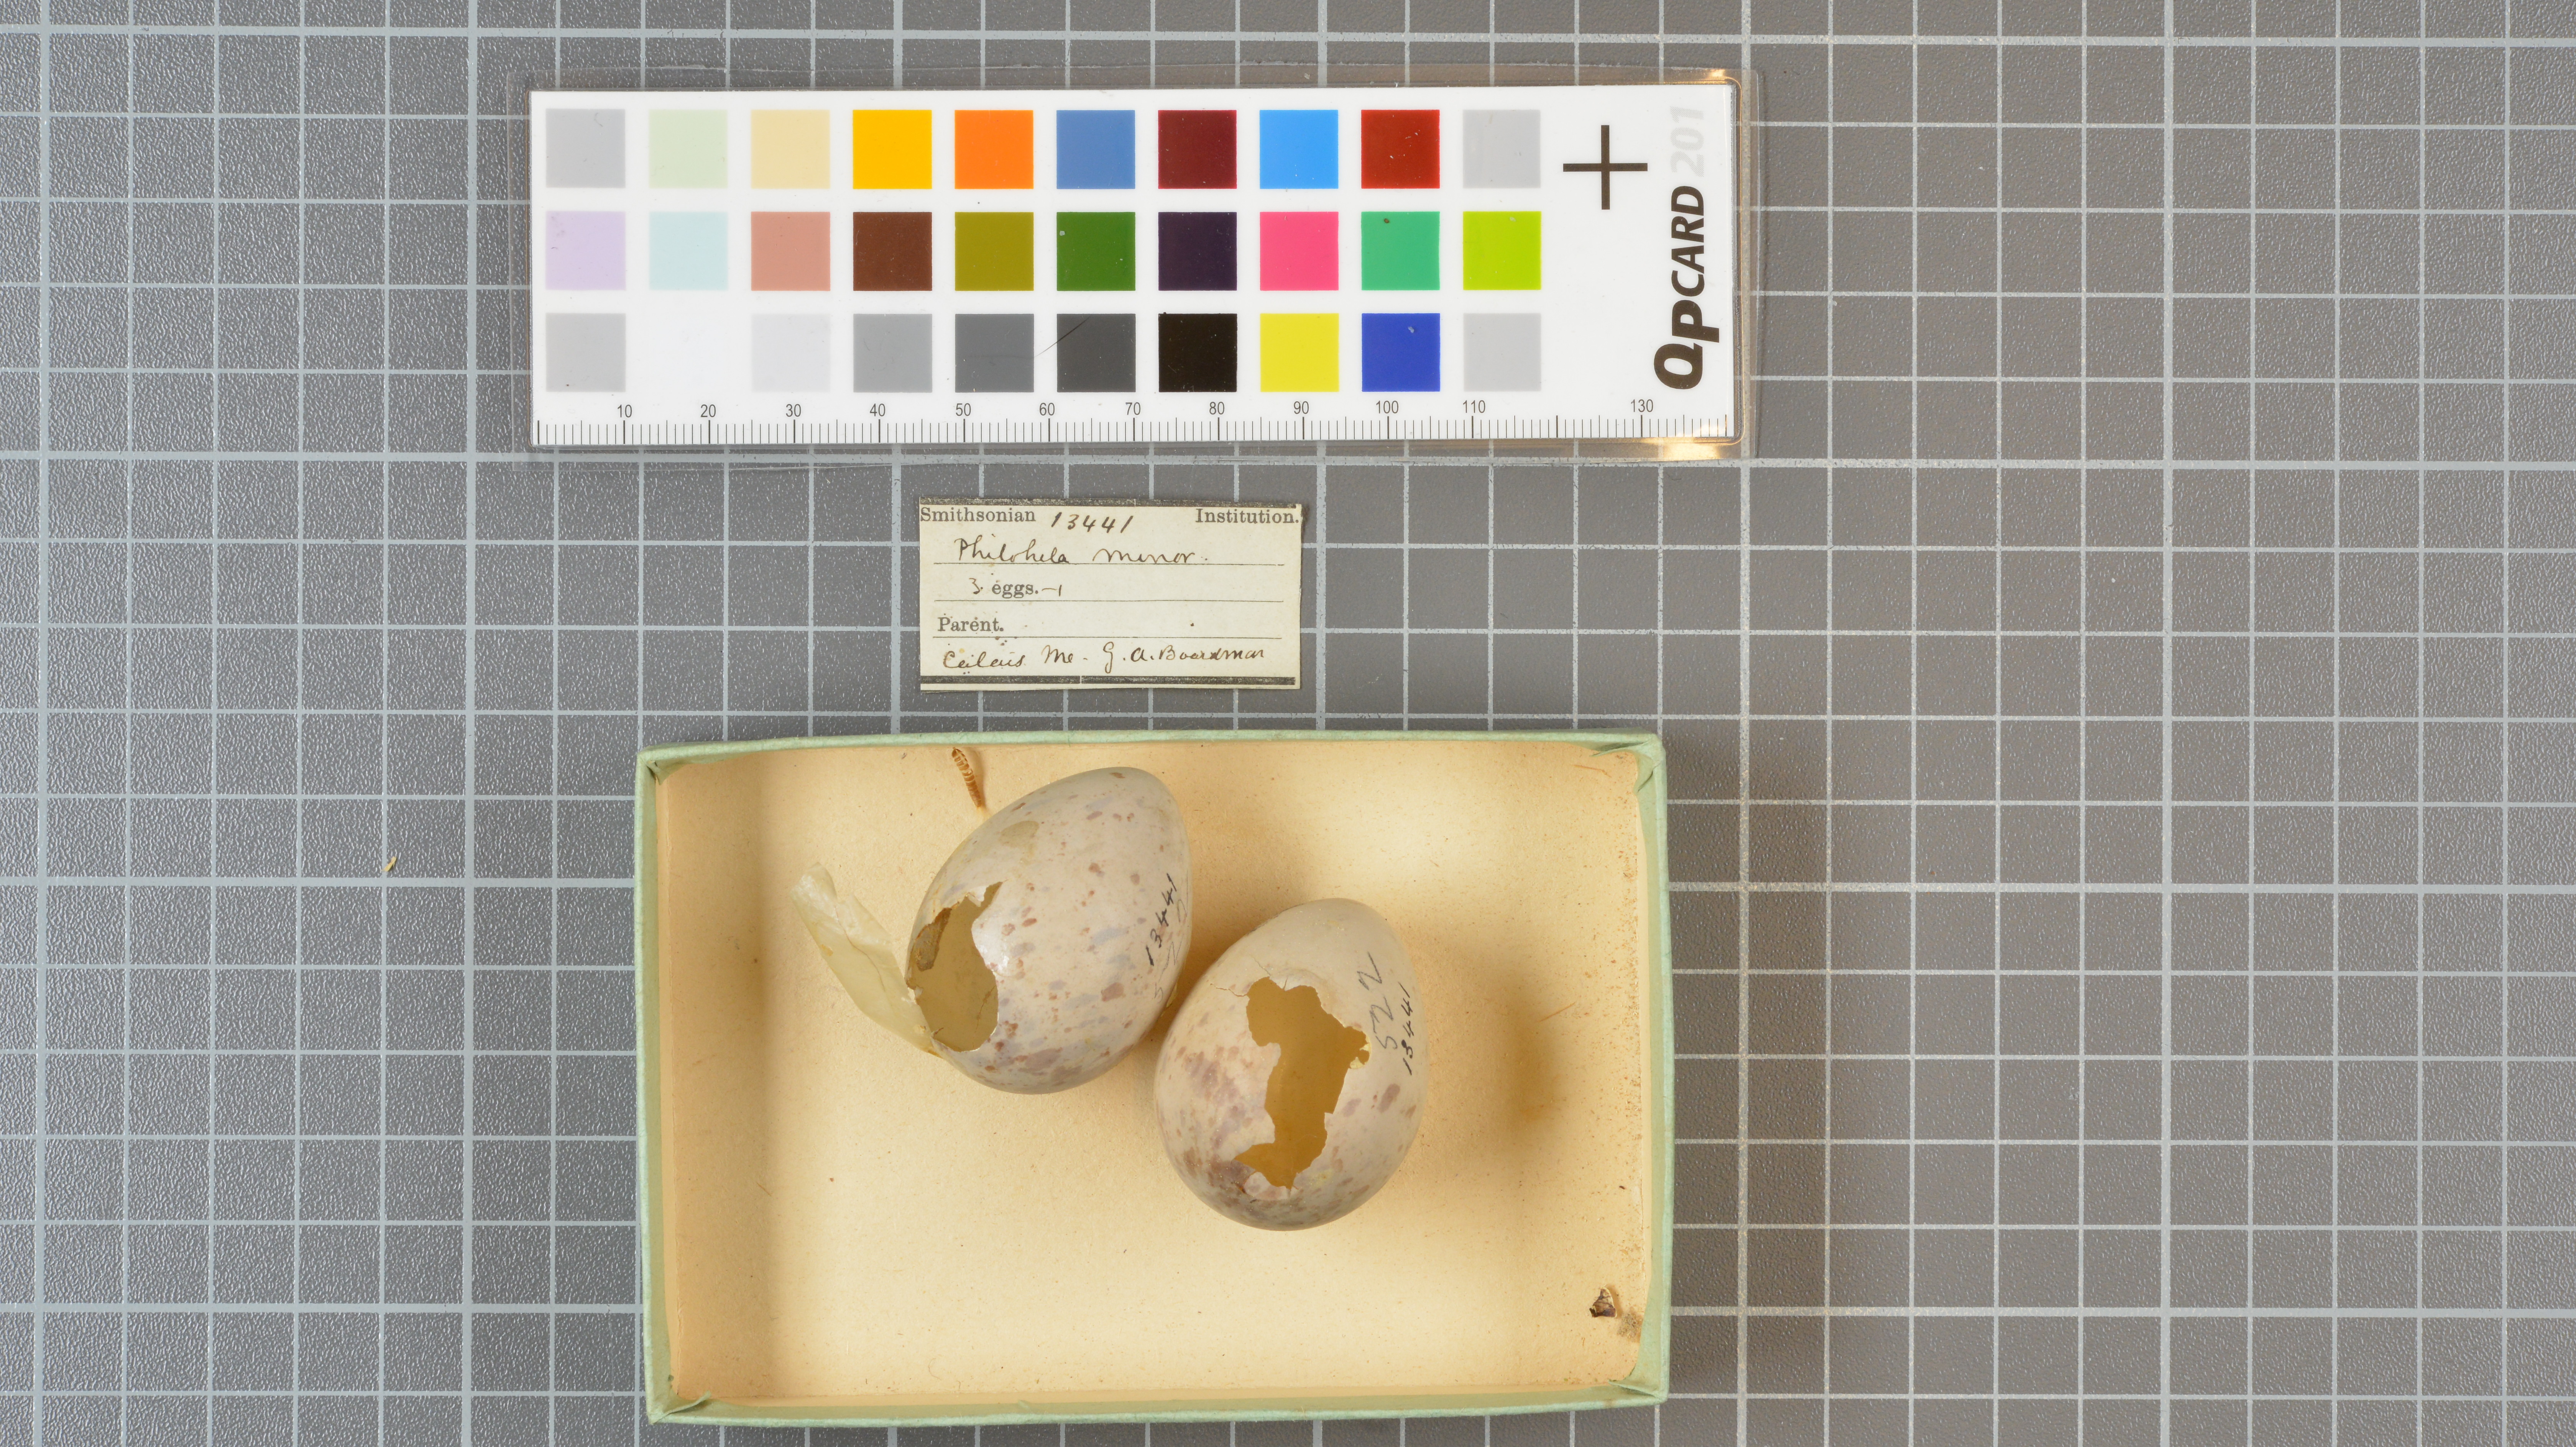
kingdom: Animalia
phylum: Chordata
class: Aves
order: Charadriiformes
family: Scolopacidae
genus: Scolopax
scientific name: Scolopax minor
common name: American woodcock
